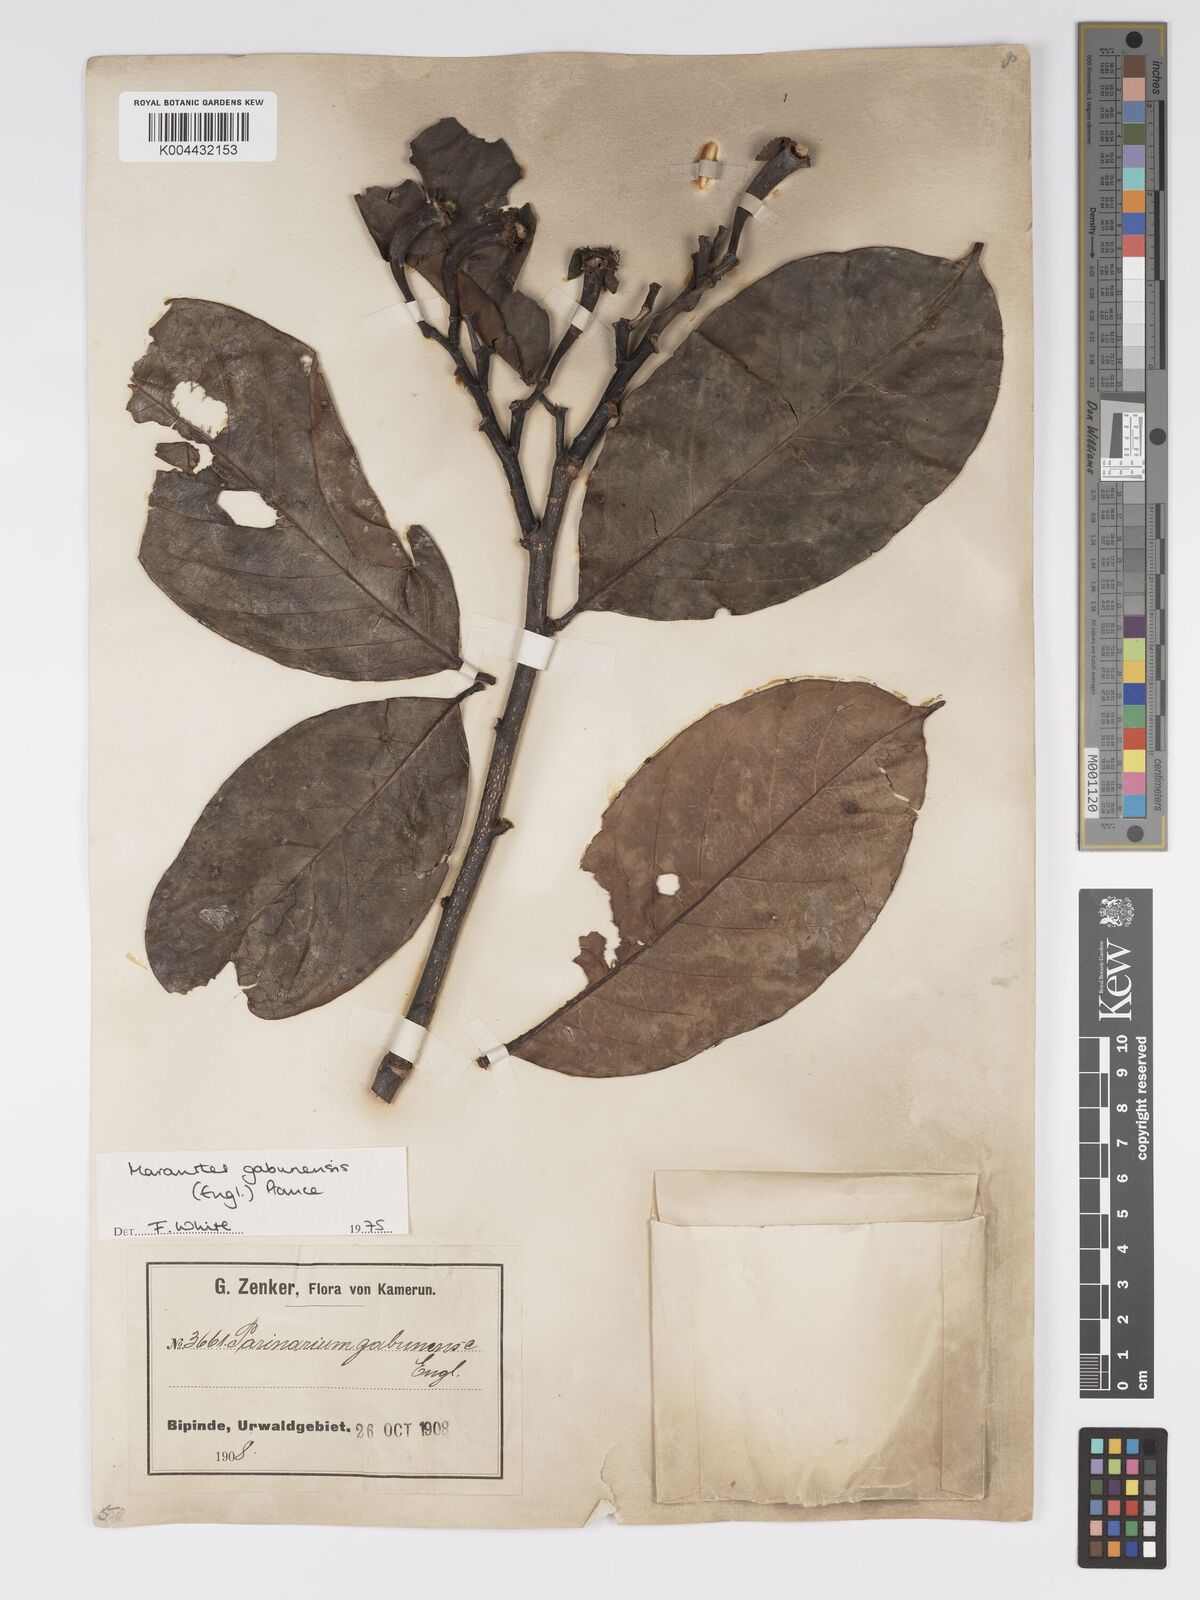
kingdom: Plantae
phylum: Tracheophyta
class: Magnoliopsida
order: Malpighiales
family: Chrysobalanaceae
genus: Maranthes
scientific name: Maranthes gabunensis
